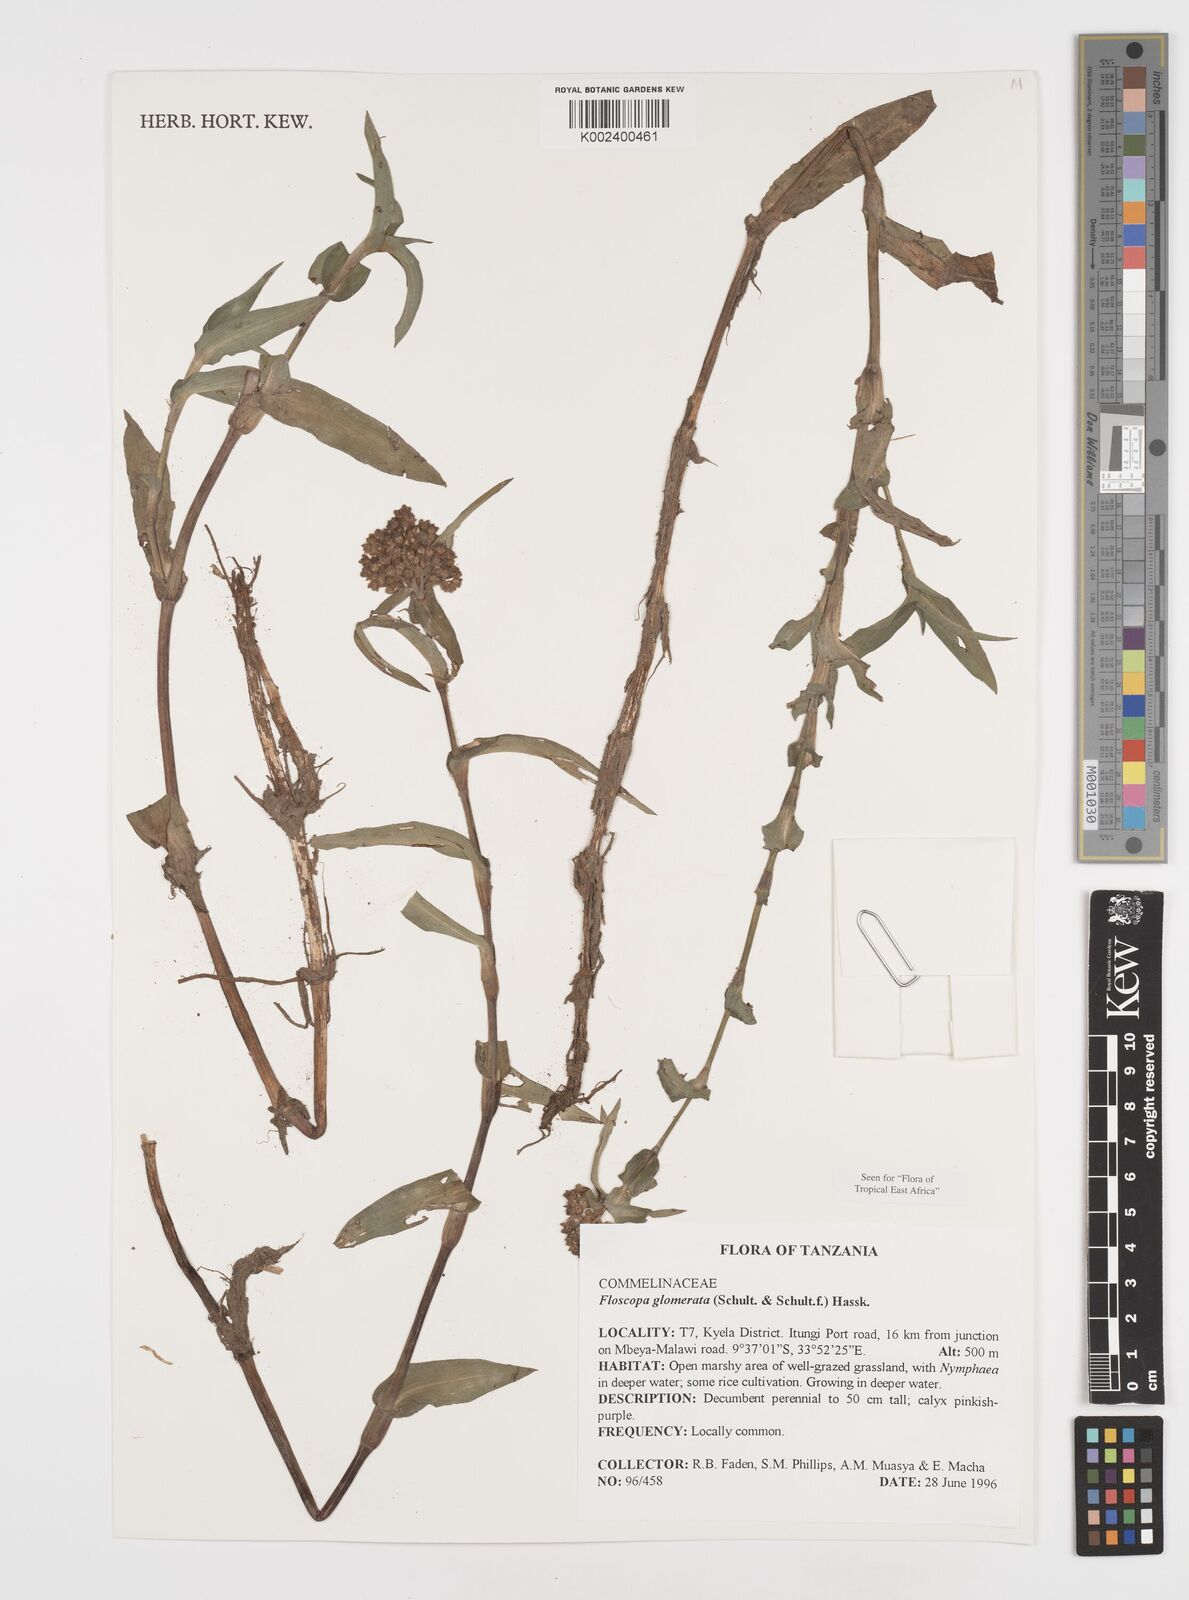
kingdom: Plantae
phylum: Tracheophyta
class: Liliopsida
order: Commelinales
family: Commelinaceae
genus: Floscopa
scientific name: Floscopa glomerata
